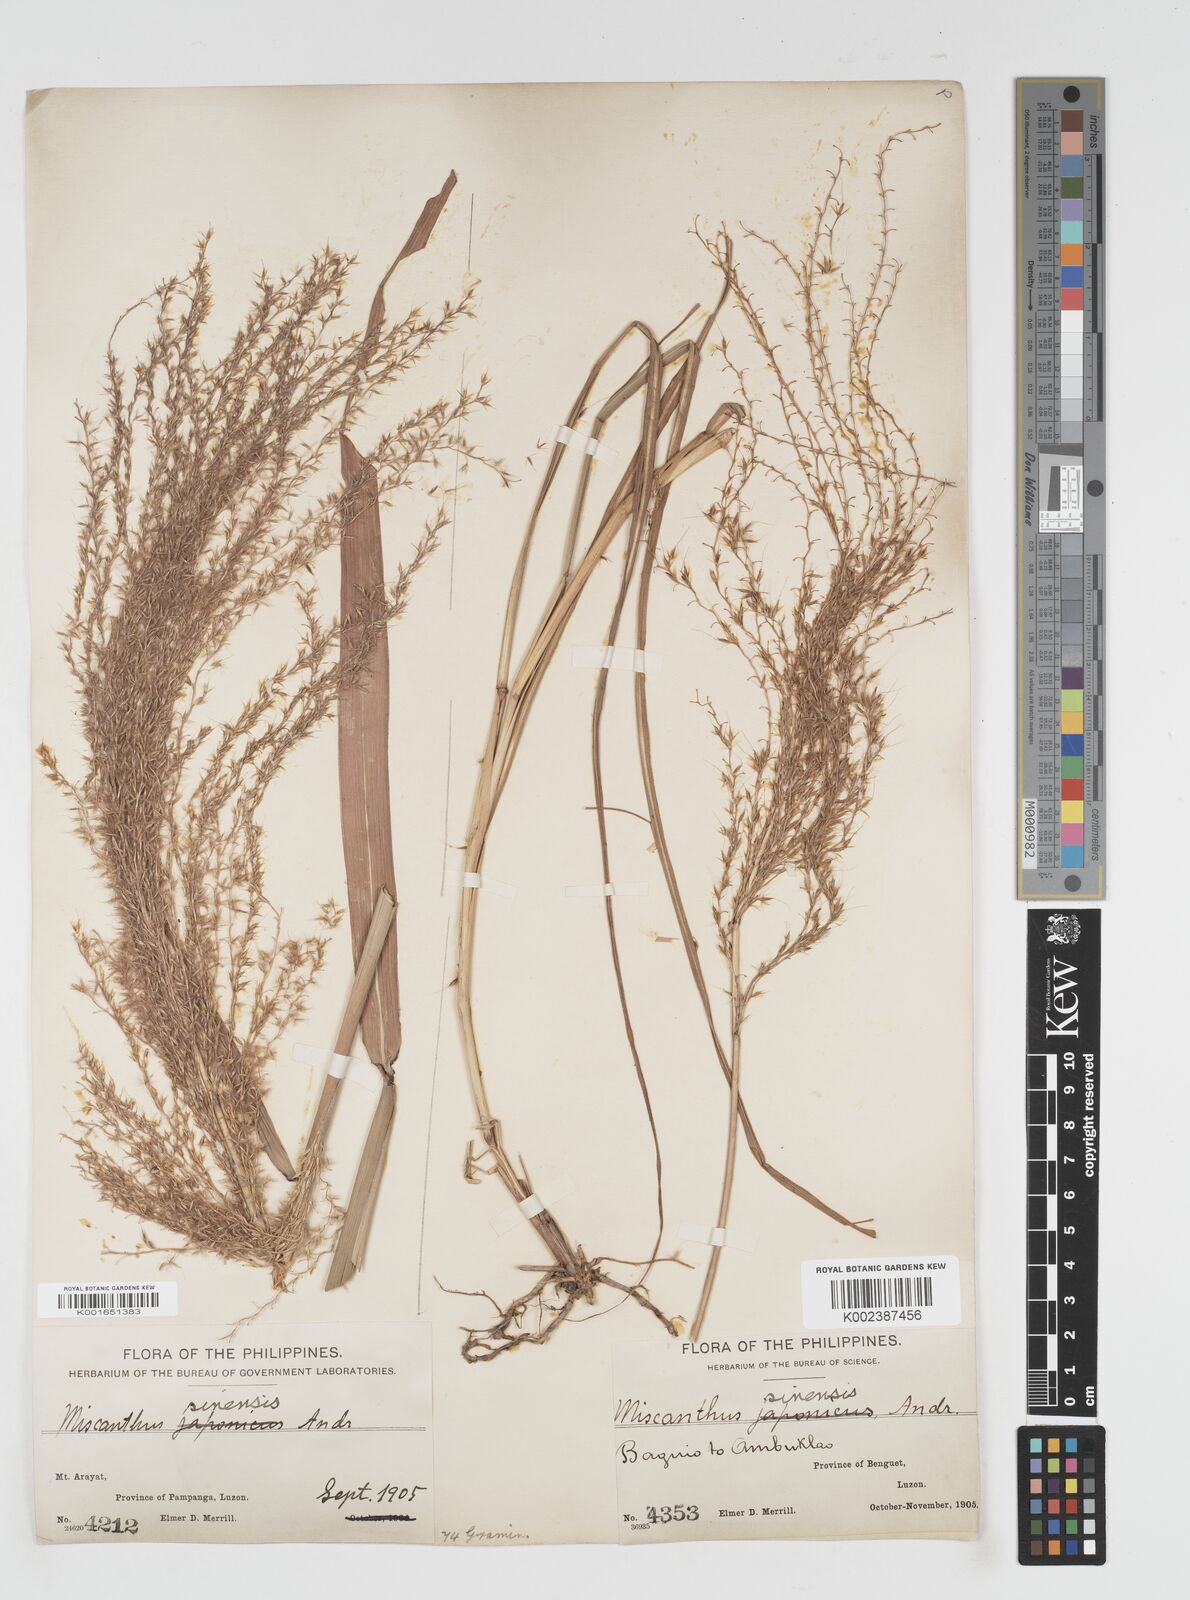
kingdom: Plantae
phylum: Tracheophyta
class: Liliopsida
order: Poales
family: Poaceae
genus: Miscanthus
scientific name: Miscanthus
